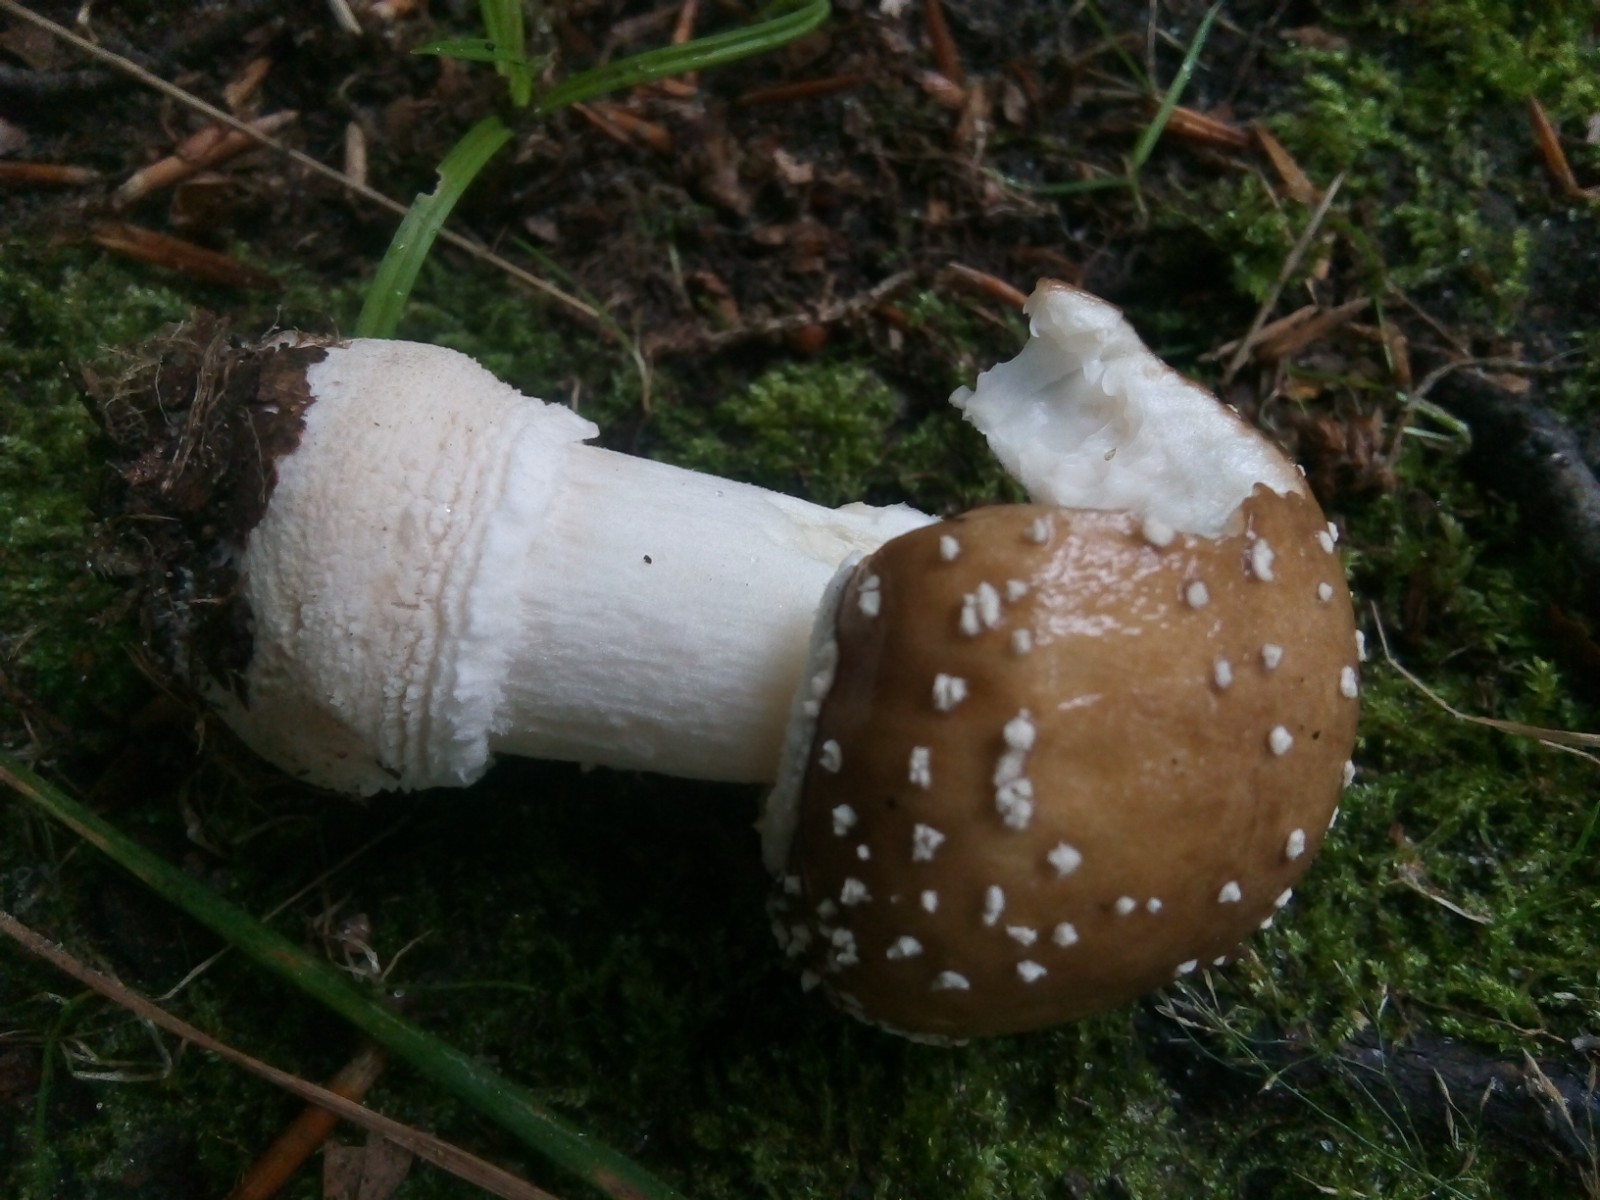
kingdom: Fungi
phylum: Basidiomycota
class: Agaricomycetes
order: Agaricales
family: Amanitaceae
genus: Amanita
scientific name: Amanita pantherina
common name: panter-fluesvamp
